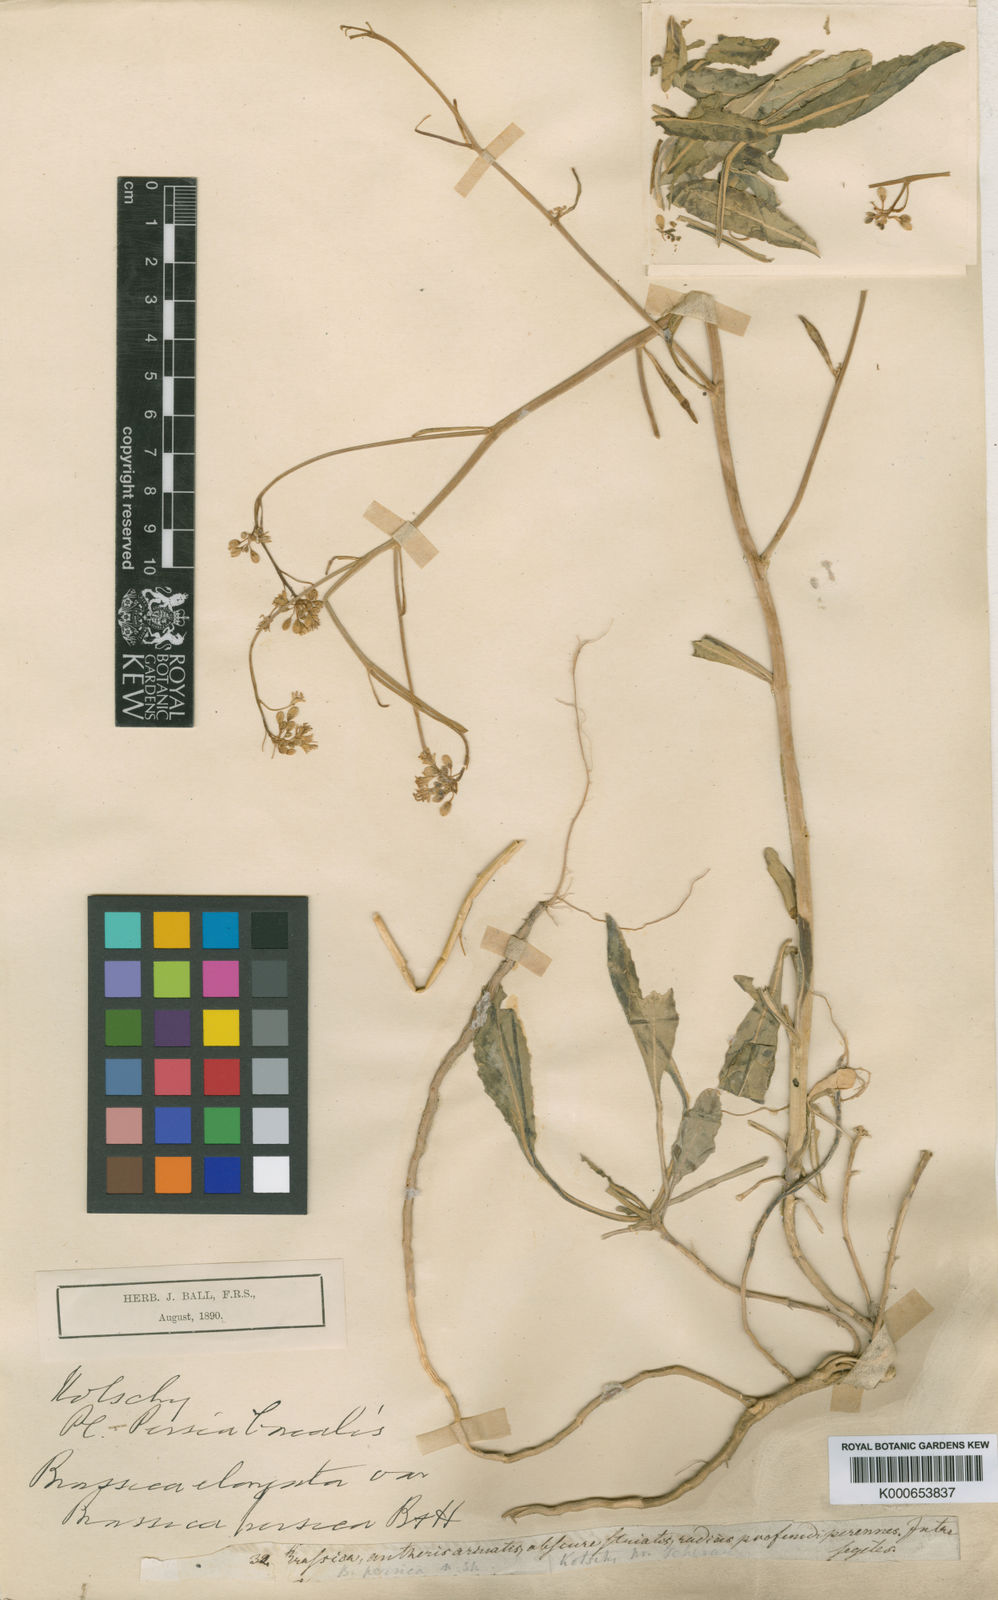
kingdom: Plantae
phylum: Tracheophyta
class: Magnoliopsida
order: Brassicales
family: Brassicaceae
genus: Brassica
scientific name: Brassica elongata
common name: Long-stalked rape
